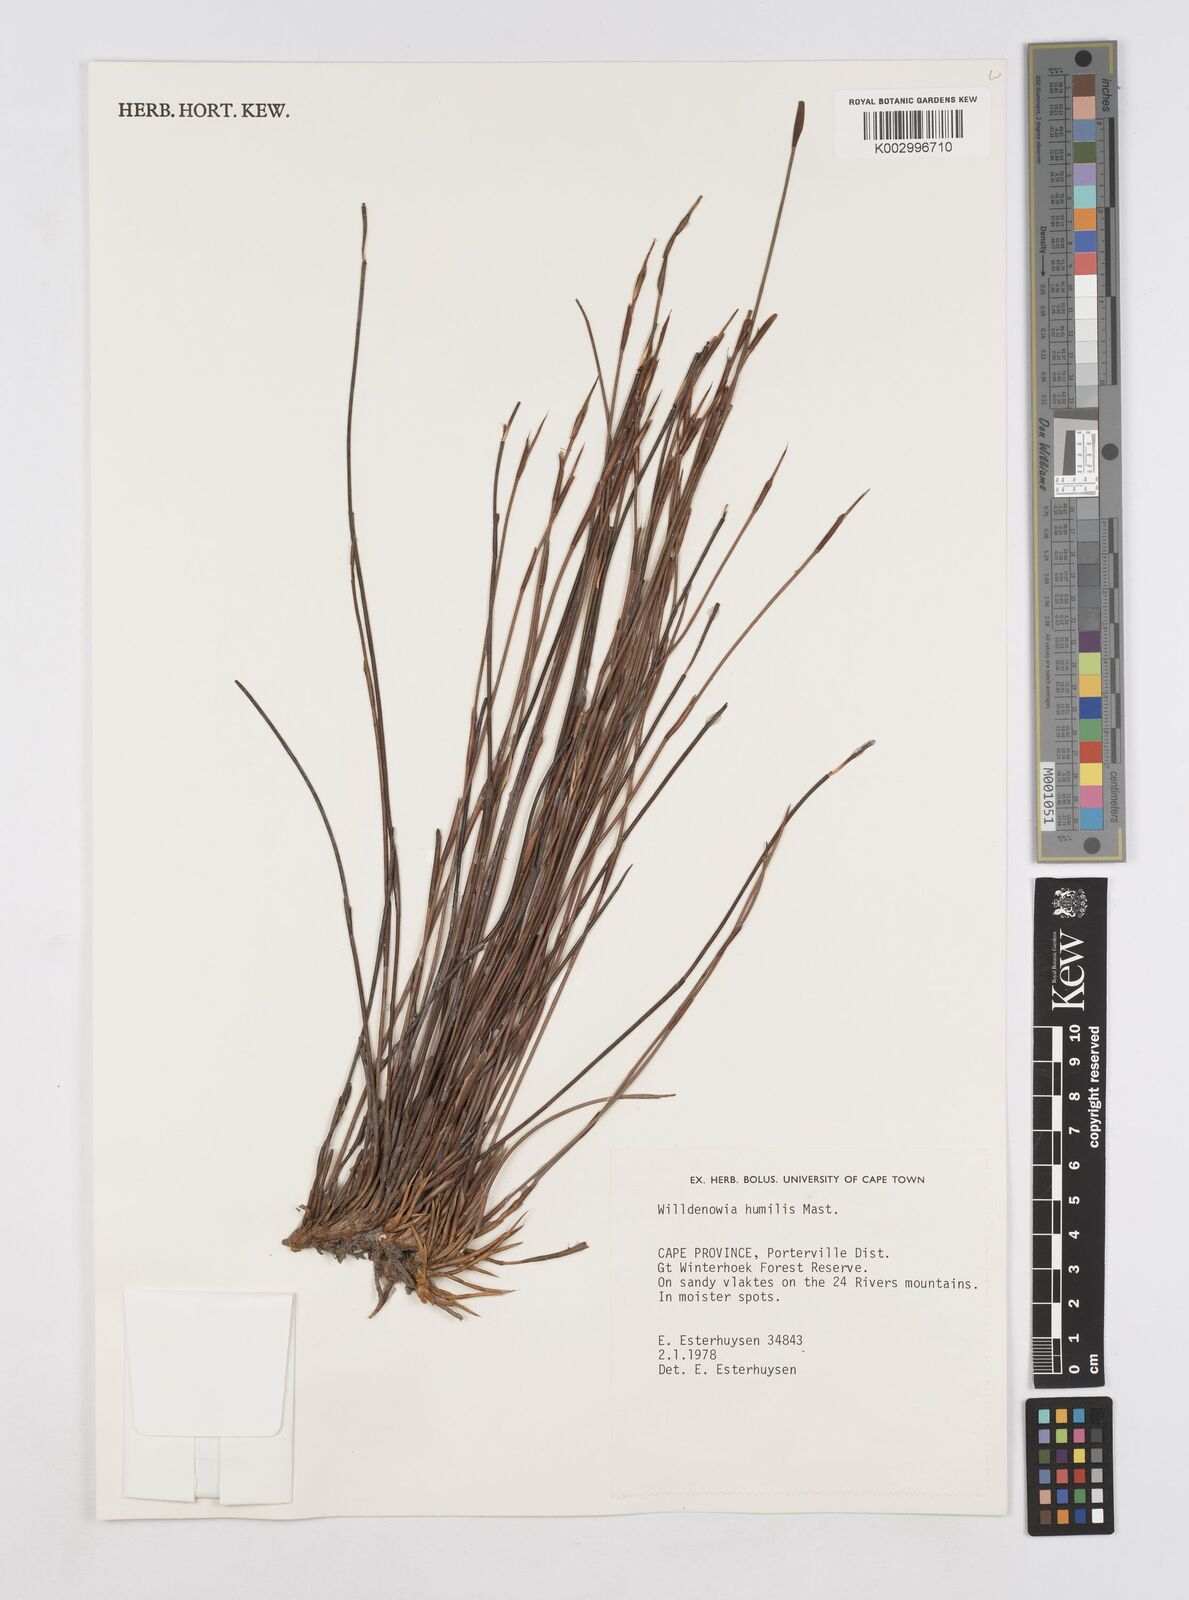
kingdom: Plantae
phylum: Tracheophyta
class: Liliopsida
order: Poales
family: Restionaceae
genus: Willdenowia
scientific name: Willdenowia humilis
